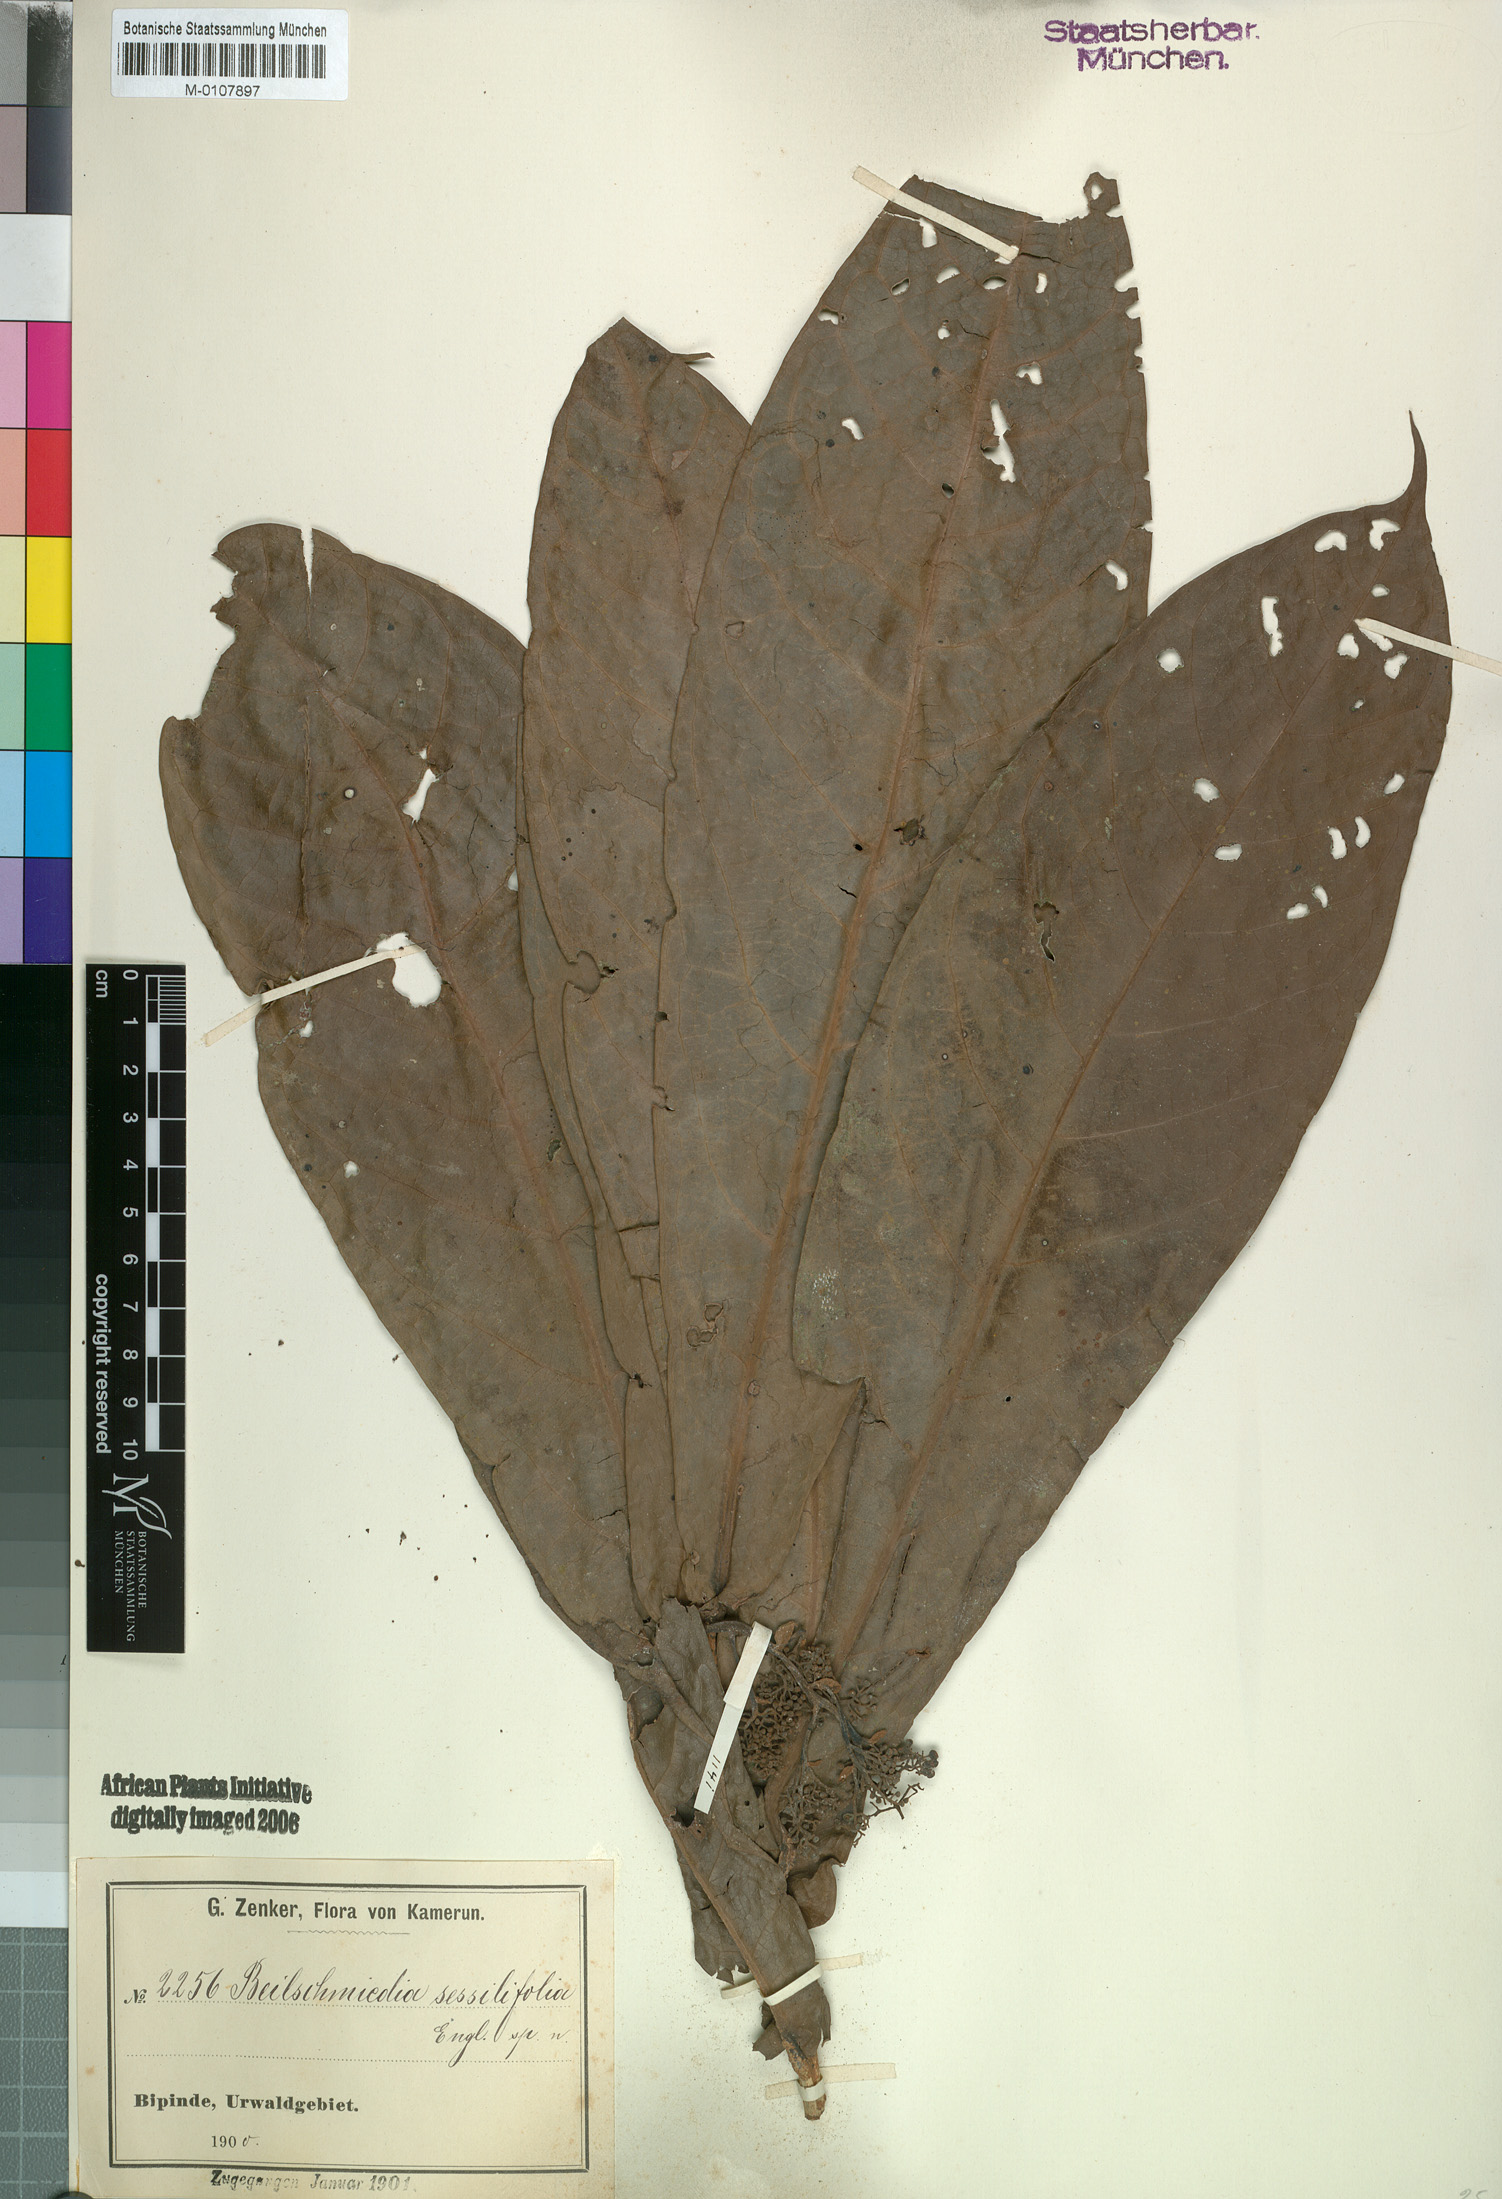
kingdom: Plantae
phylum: Tracheophyta
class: Magnoliopsida
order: Laurales
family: Lauraceae
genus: Beilschmiedia
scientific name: Beilschmiedia sessilifolia
